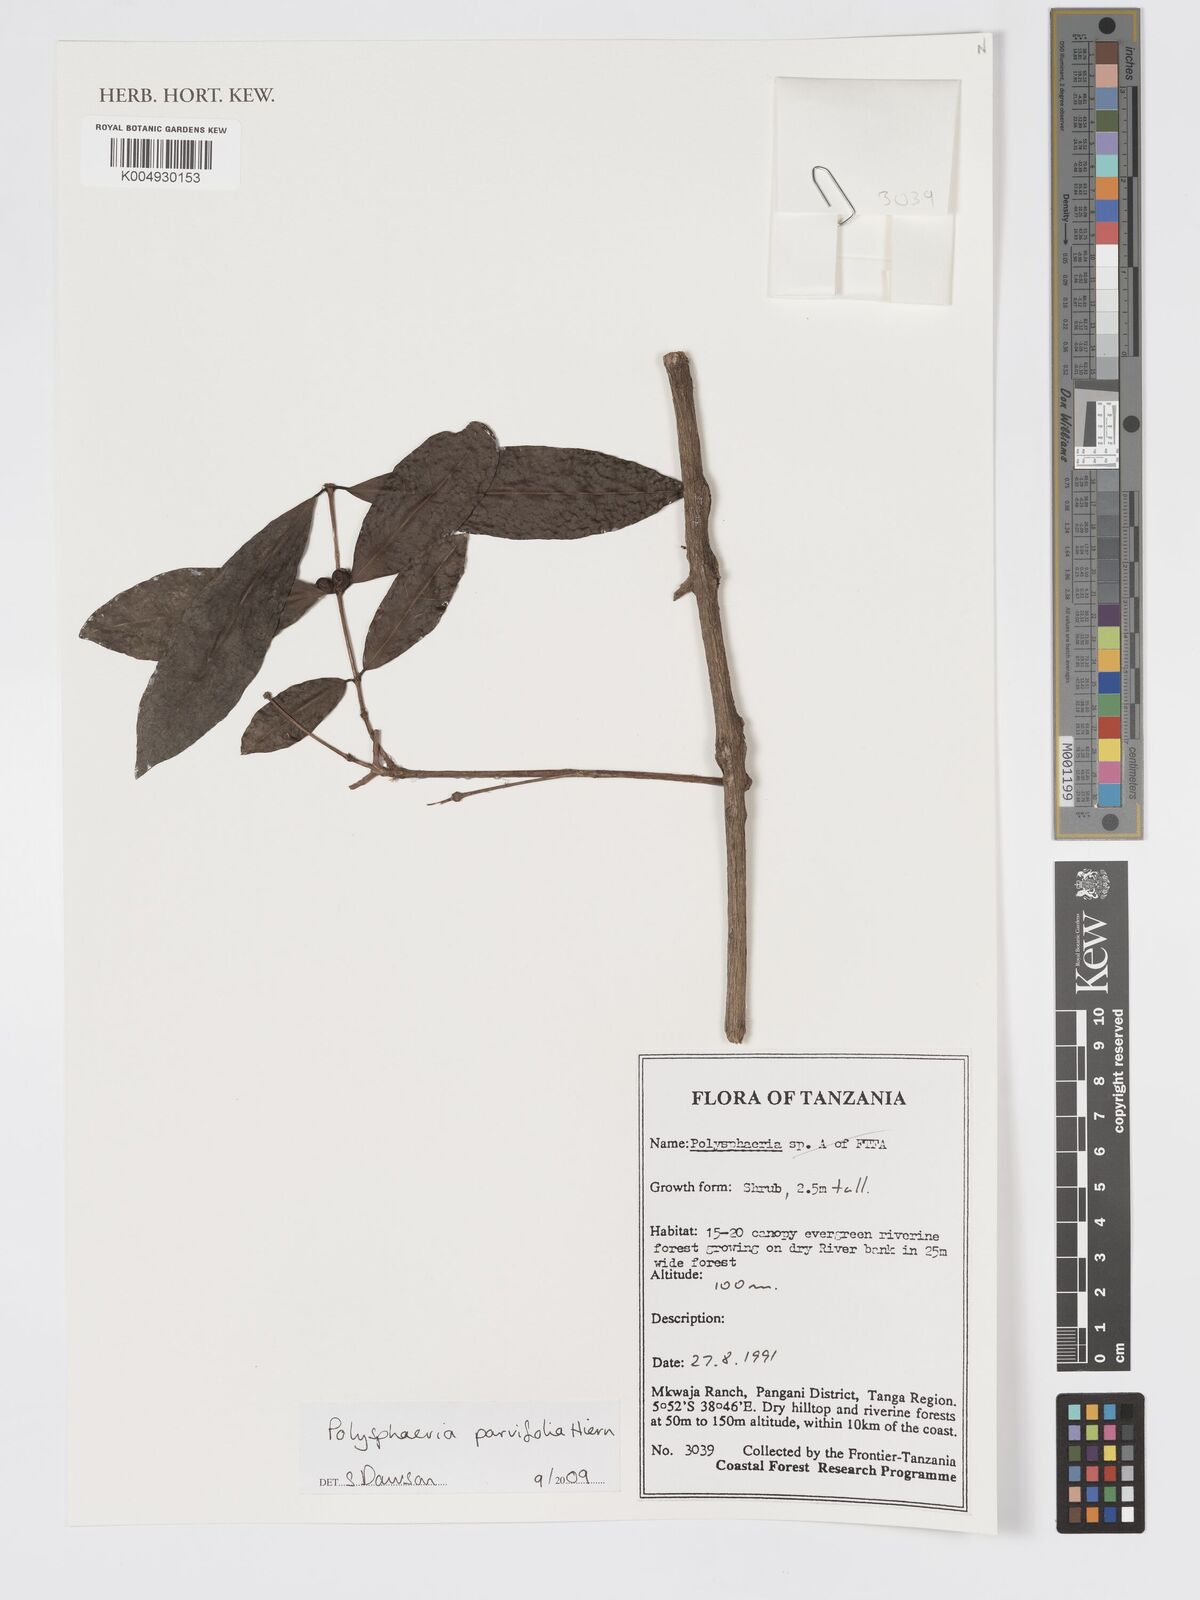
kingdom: Plantae
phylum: Tracheophyta
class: Magnoliopsida
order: Gentianales
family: Rubiaceae
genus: Polysphaeria
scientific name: Polysphaeria parvifolia
